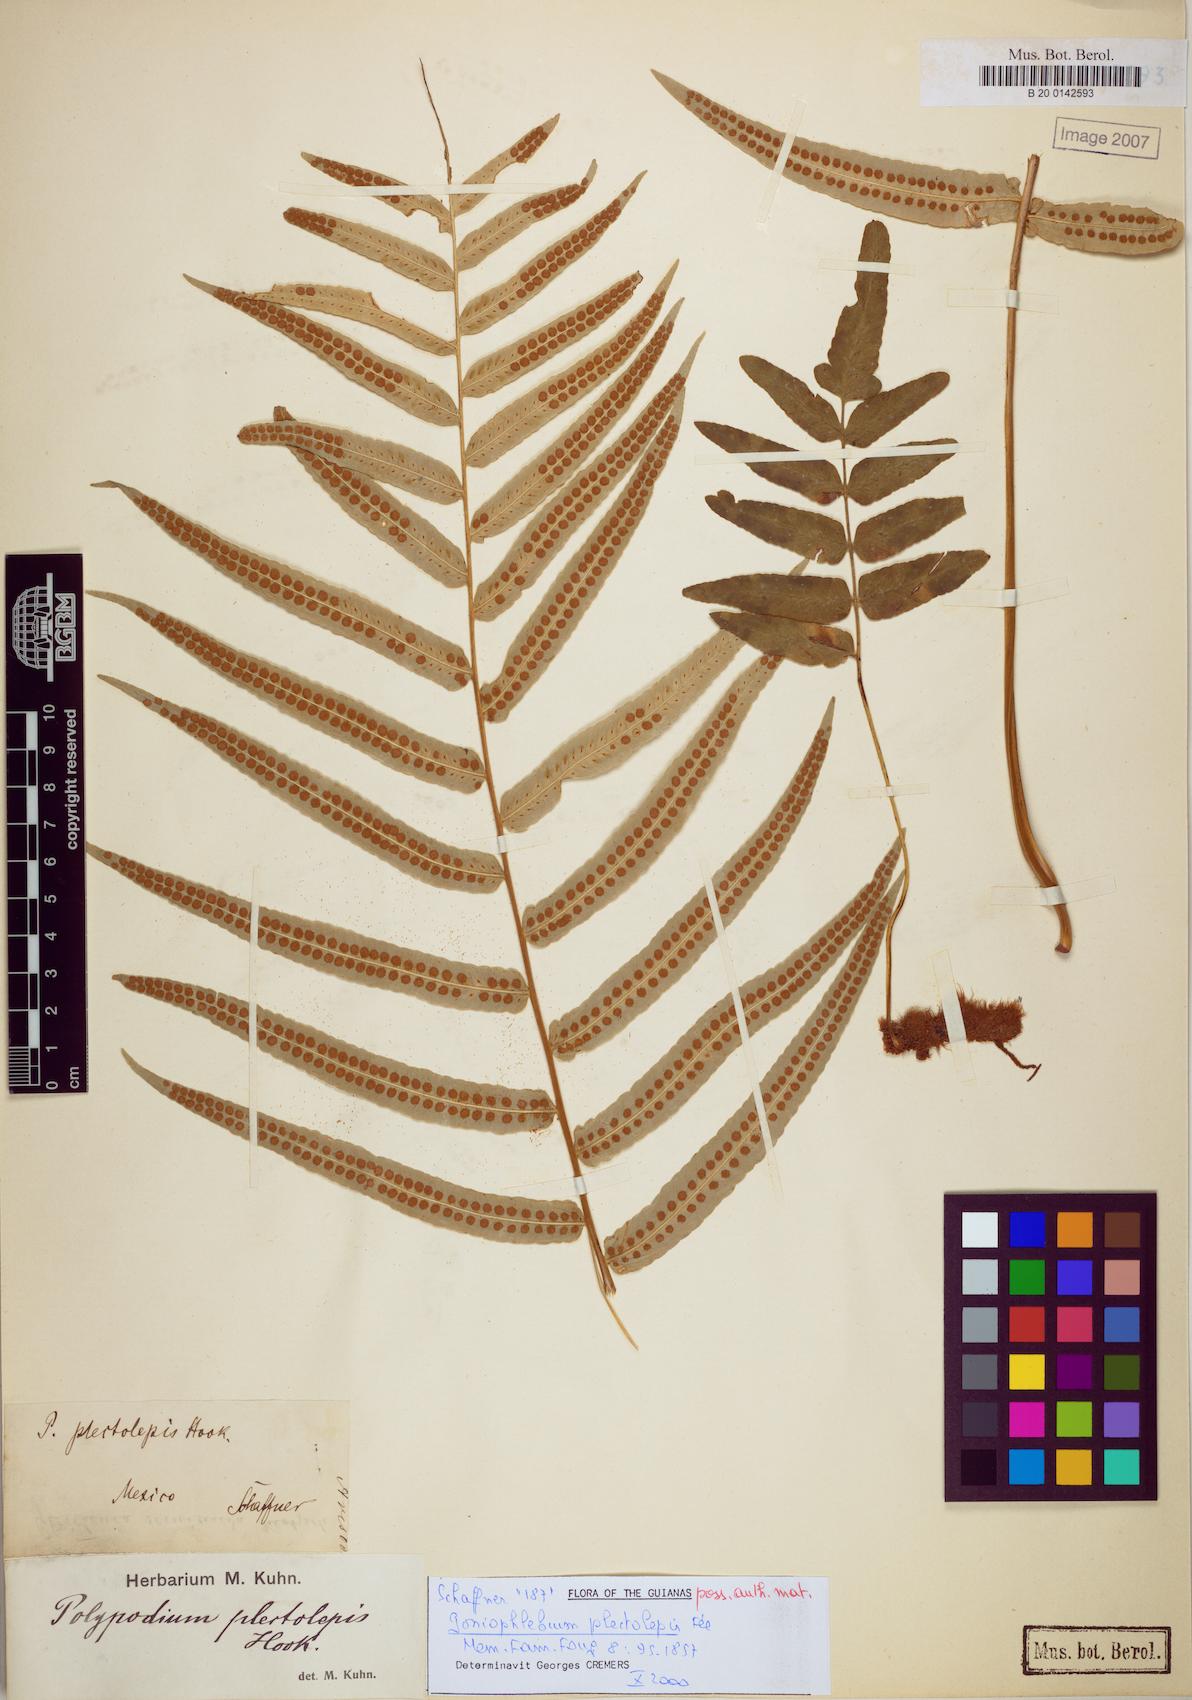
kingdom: Plantae
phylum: Tracheophyta
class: Polypodiopsida
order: Polypodiales
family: Polypodiaceae
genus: Polypodium
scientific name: Polypodium echinolepis
